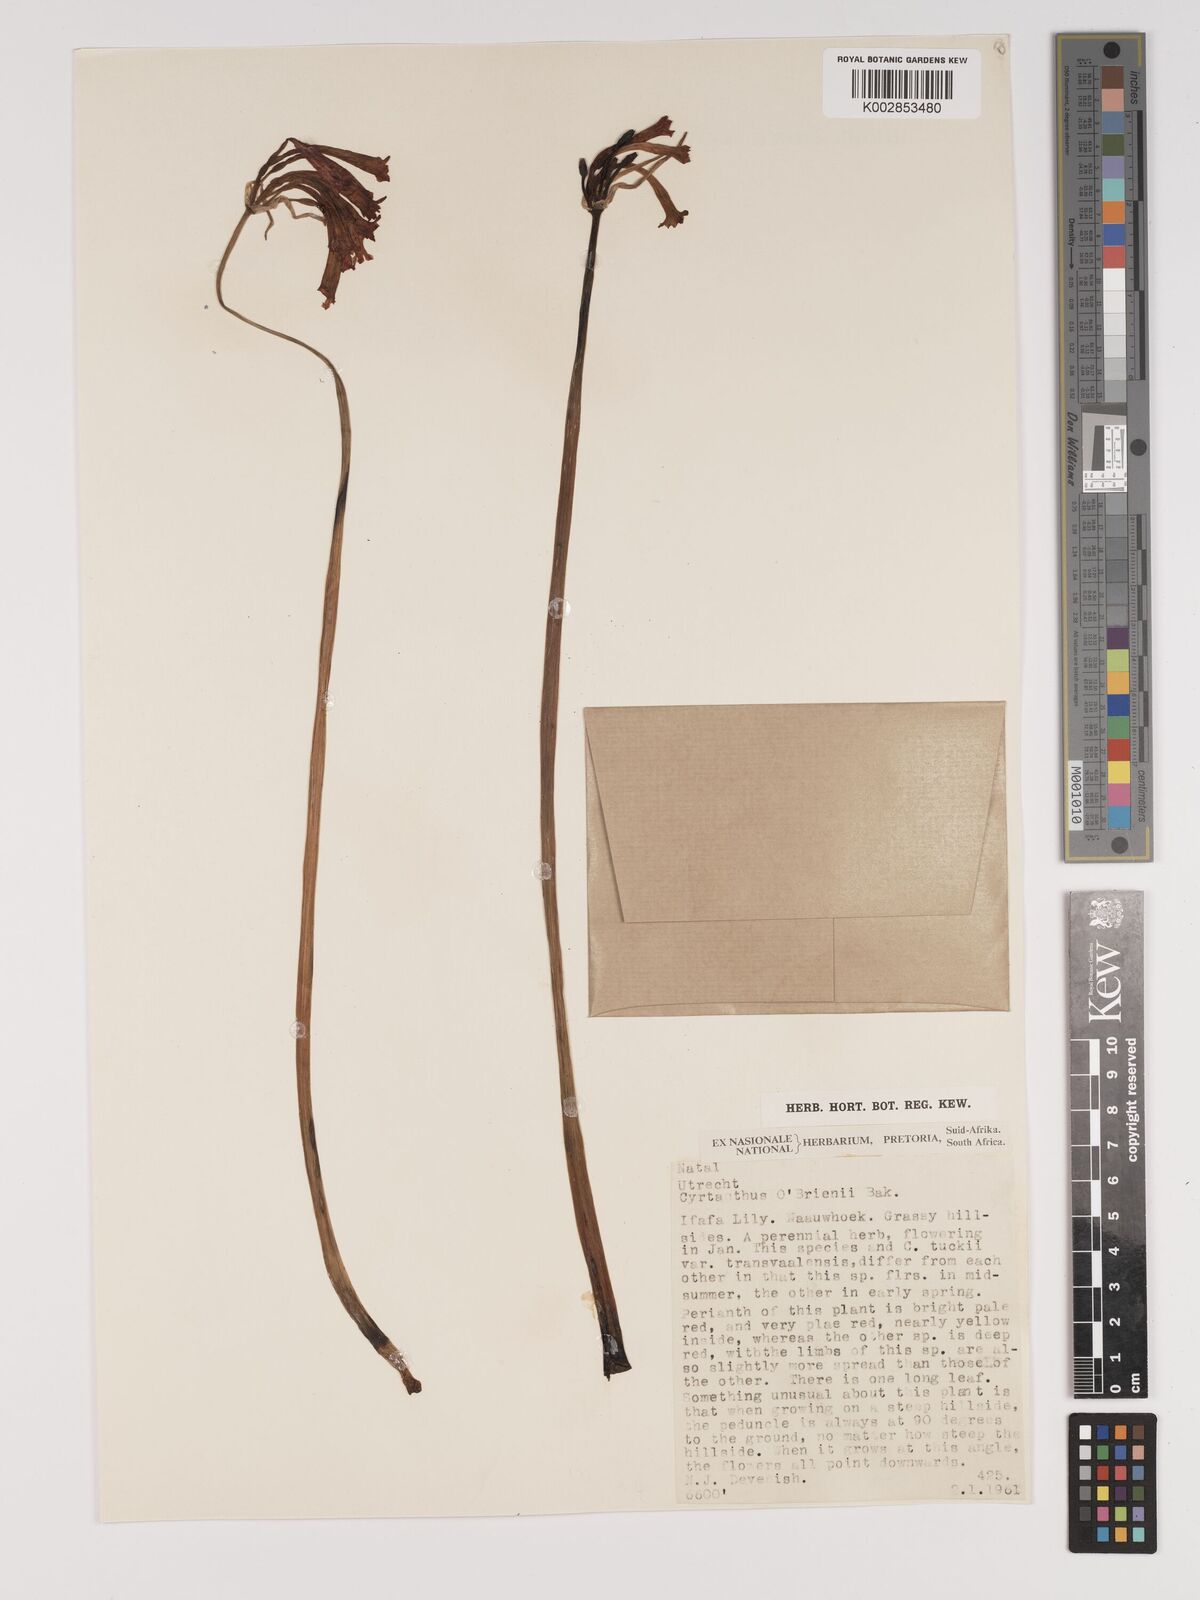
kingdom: Plantae
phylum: Tracheophyta
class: Liliopsida
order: Asparagales
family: Amaryllidaceae
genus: Cyrtanthus
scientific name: Cyrtanthus obrienii
